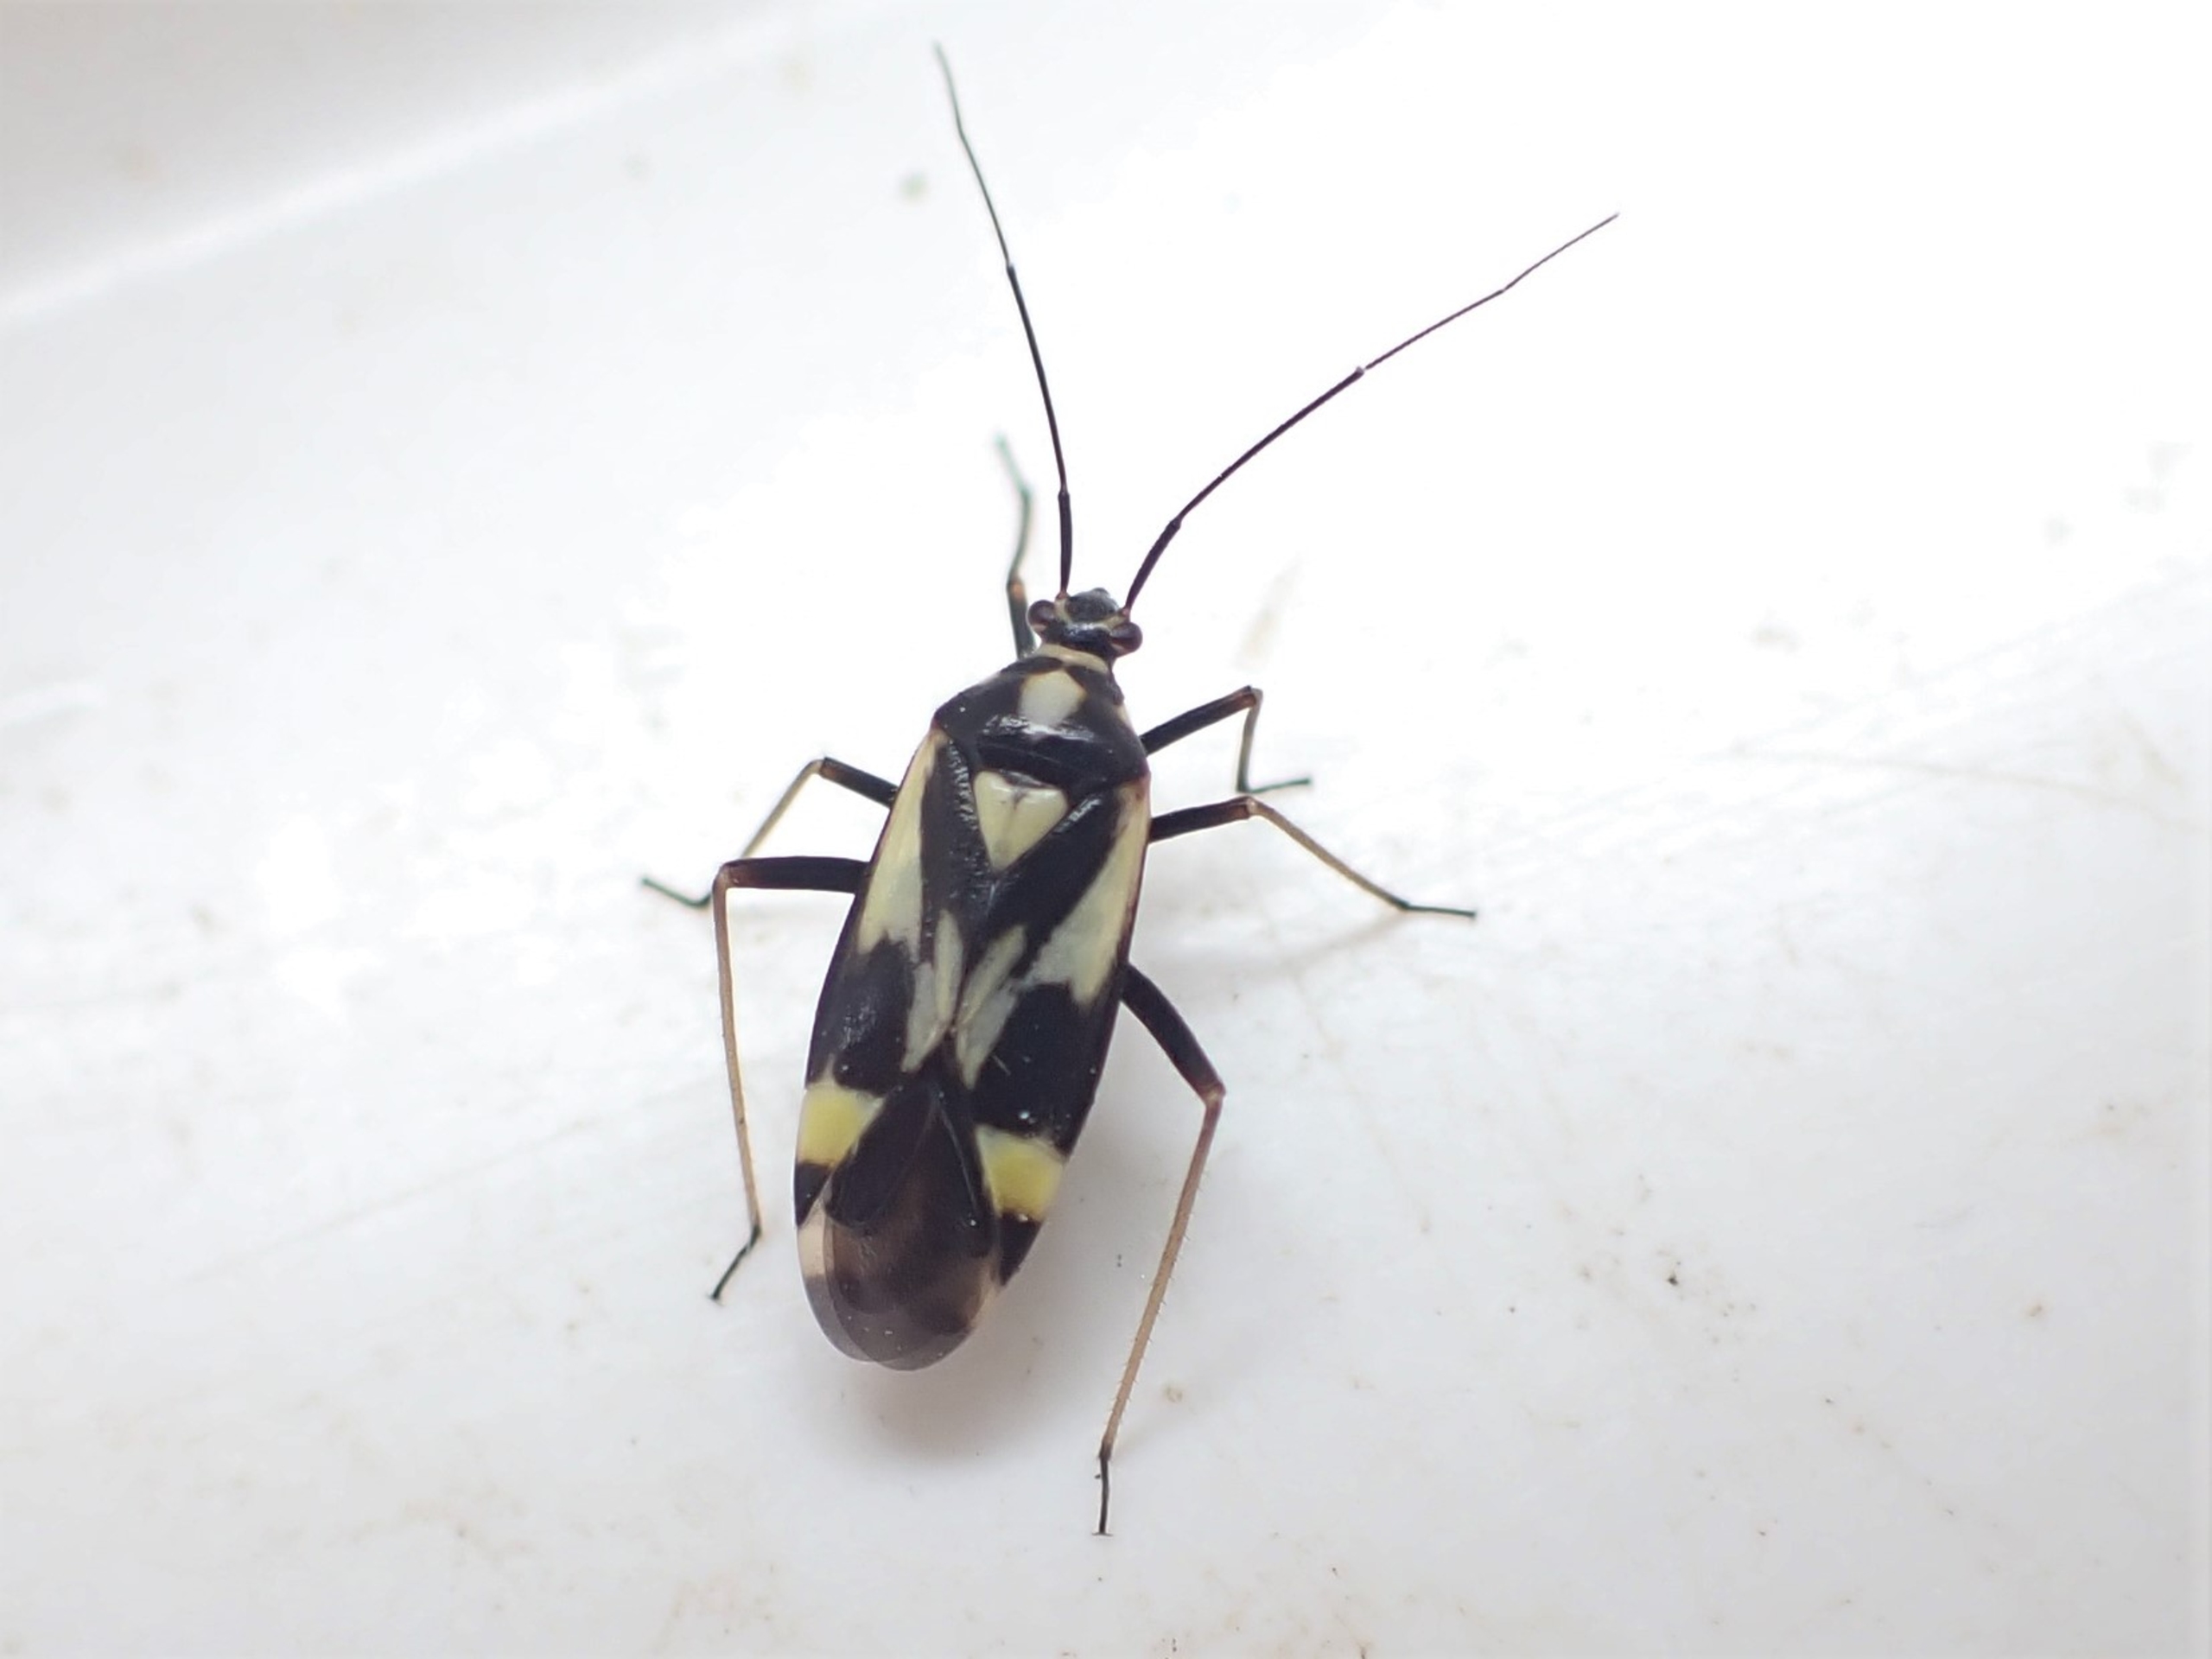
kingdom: Animalia
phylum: Arthropoda
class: Insecta
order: Hemiptera
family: Miridae
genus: Grypocoris
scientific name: Grypocoris sexguttatus
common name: Seksplettet blomstertæge
